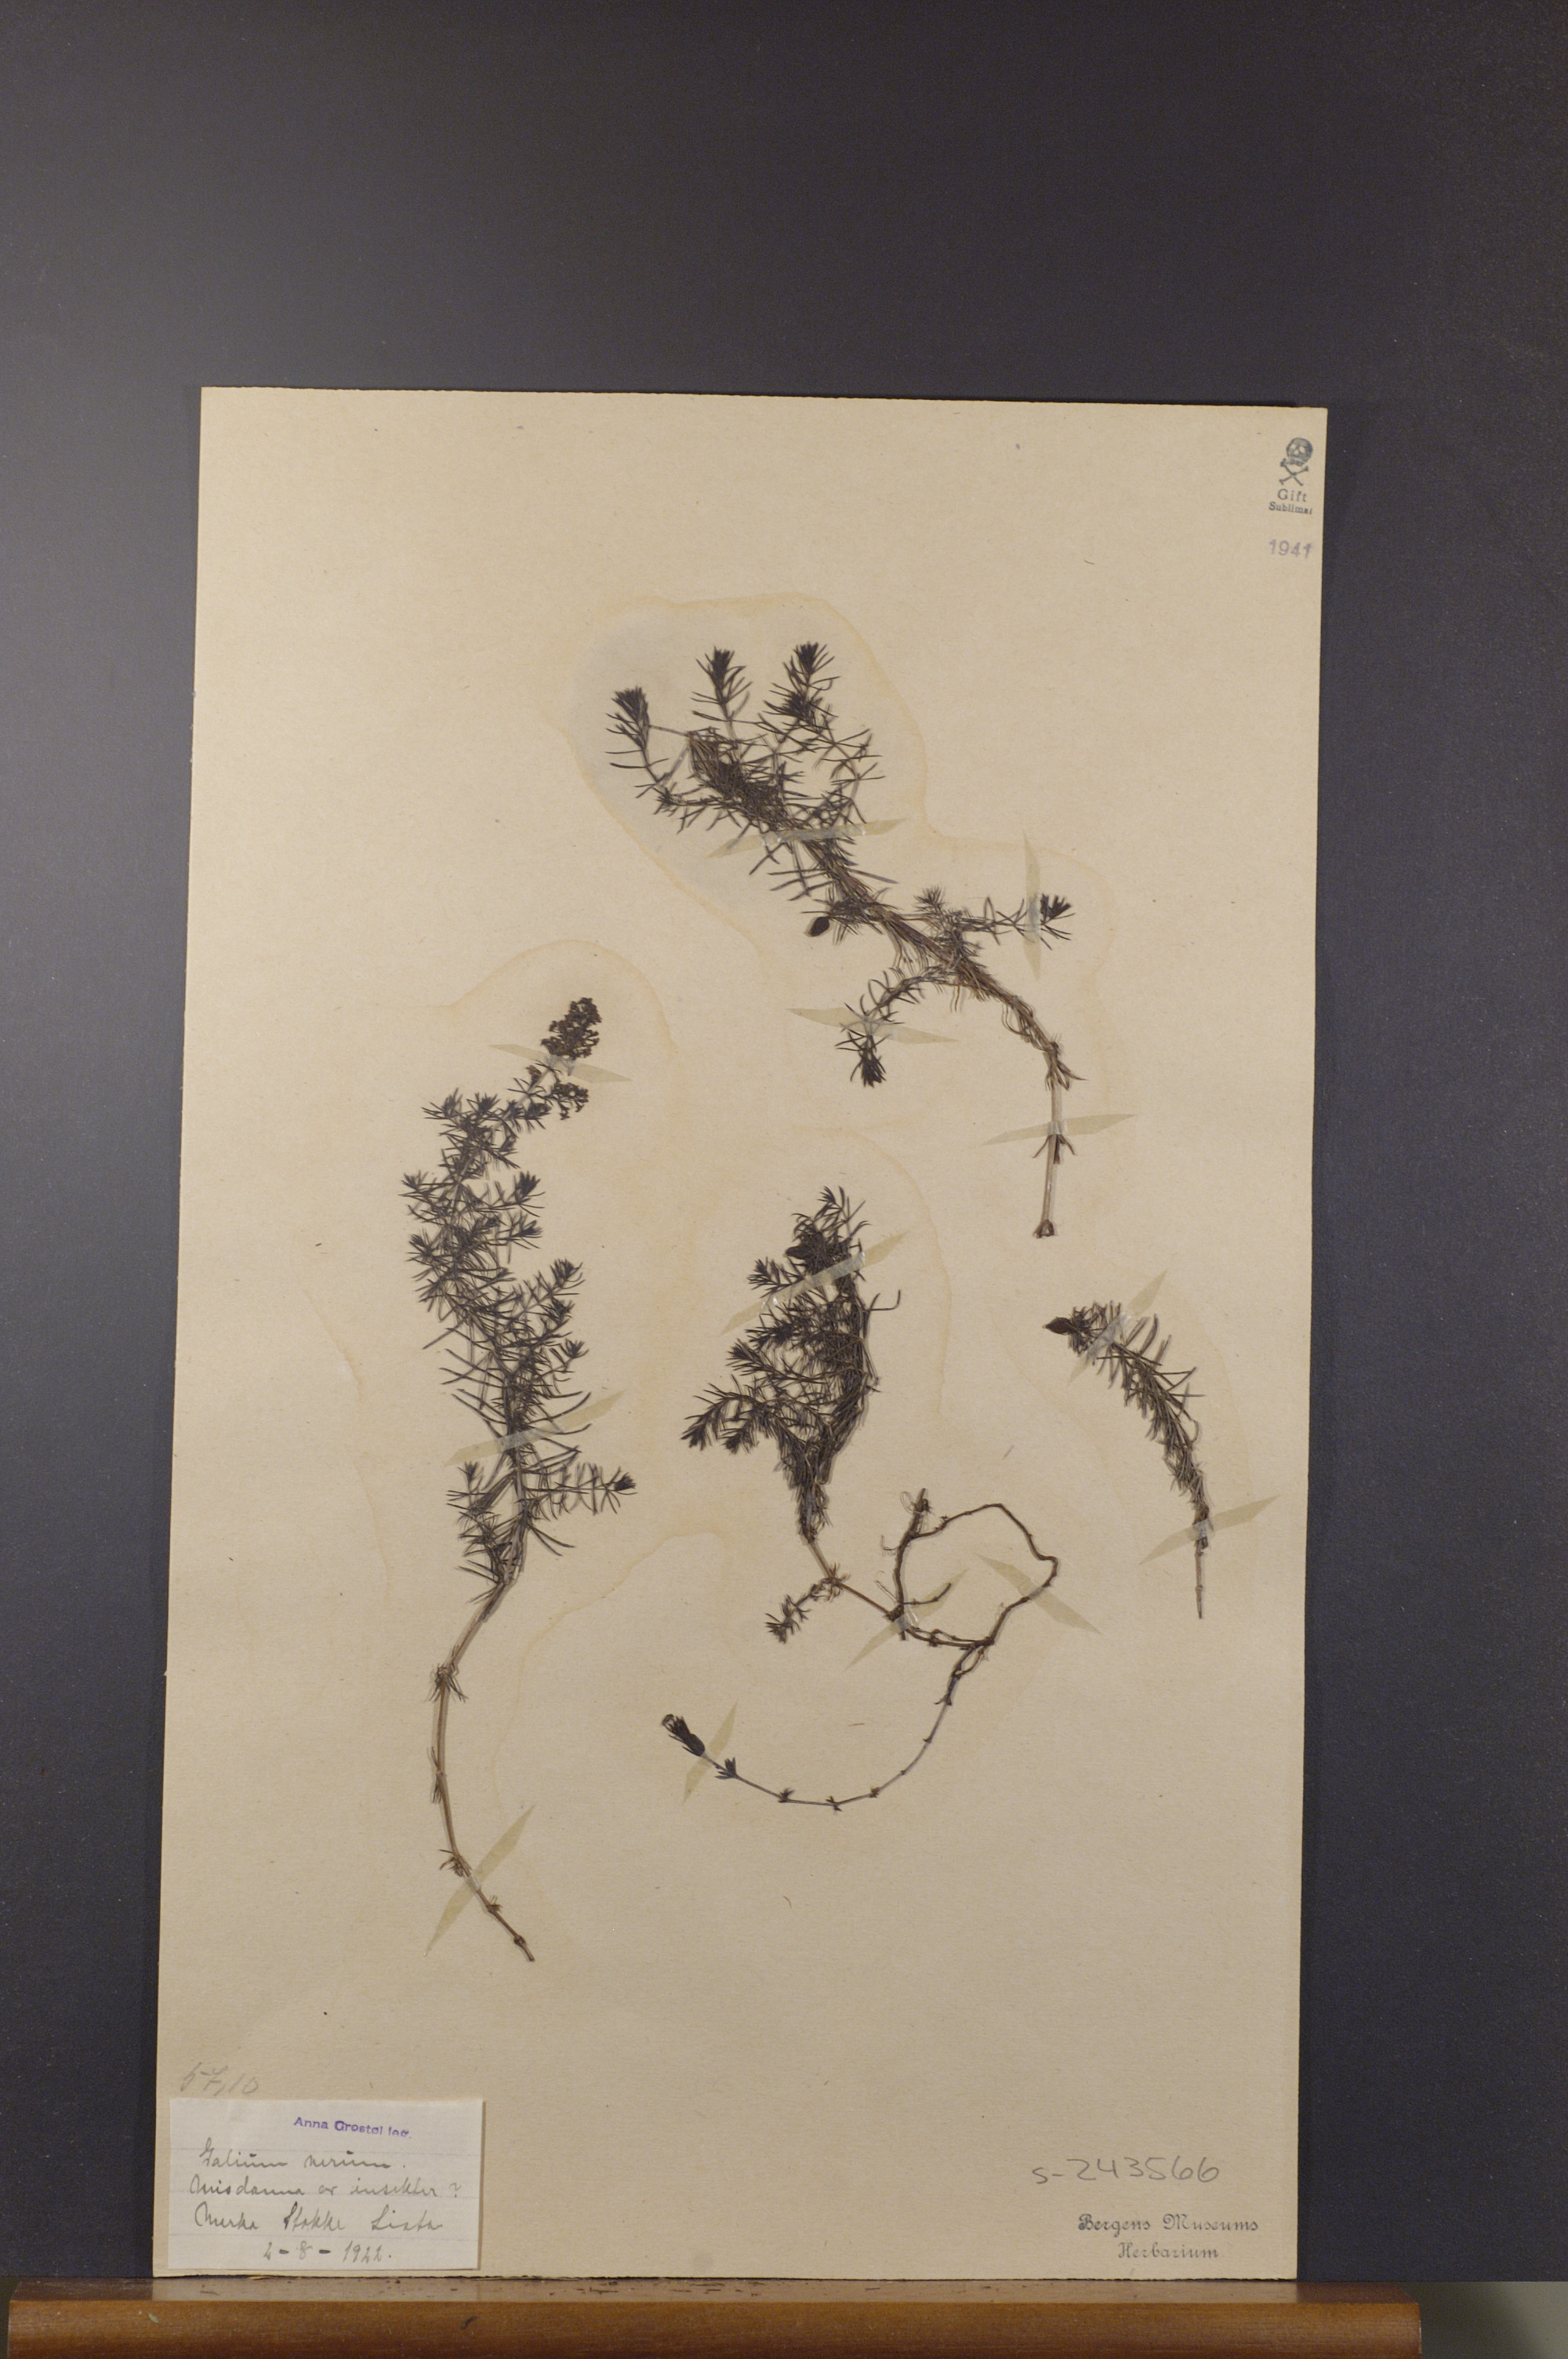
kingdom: Plantae
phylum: Tracheophyta
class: Magnoliopsida
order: Gentianales
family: Rubiaceae
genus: Galium
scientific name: Galium verum
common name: Lady's bedstraw
